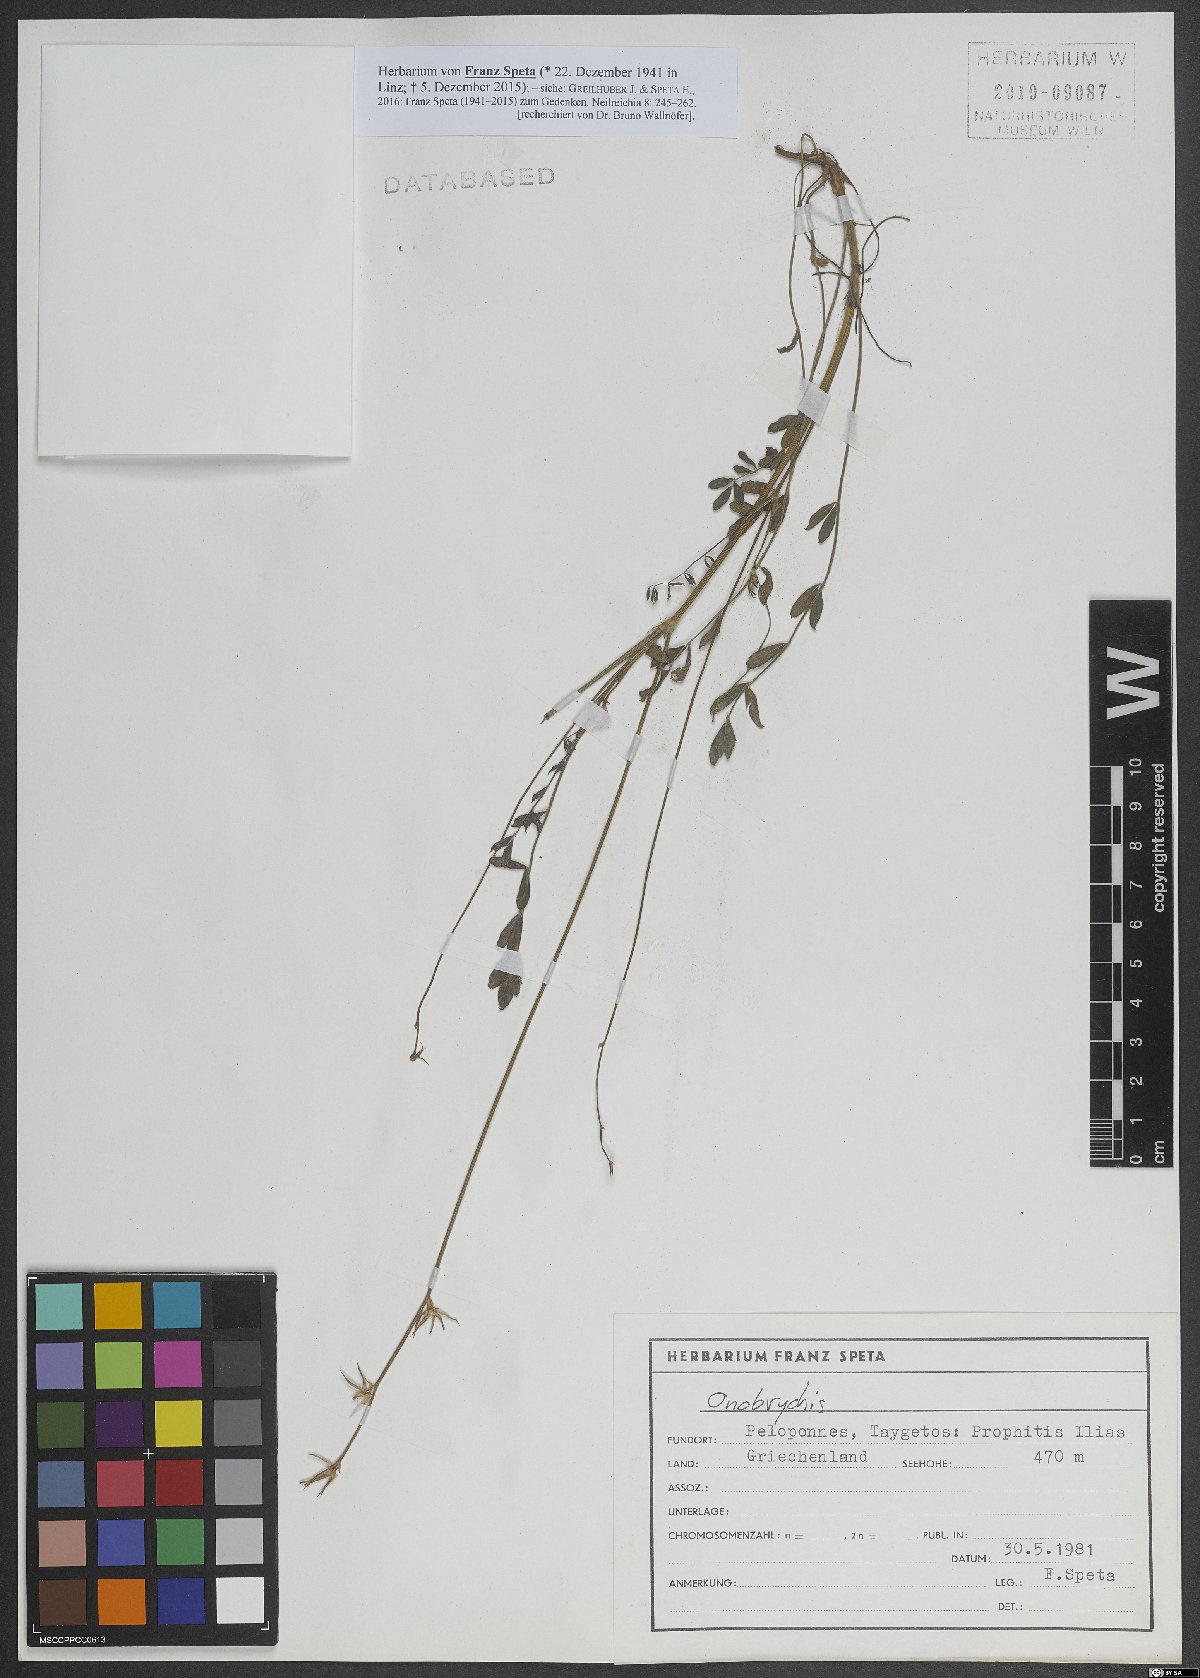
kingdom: Plantae
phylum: Tracheophyta
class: Magnoliopsida
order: Fabales
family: Fabaceae
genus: Onobrychis
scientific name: Onobrychis
